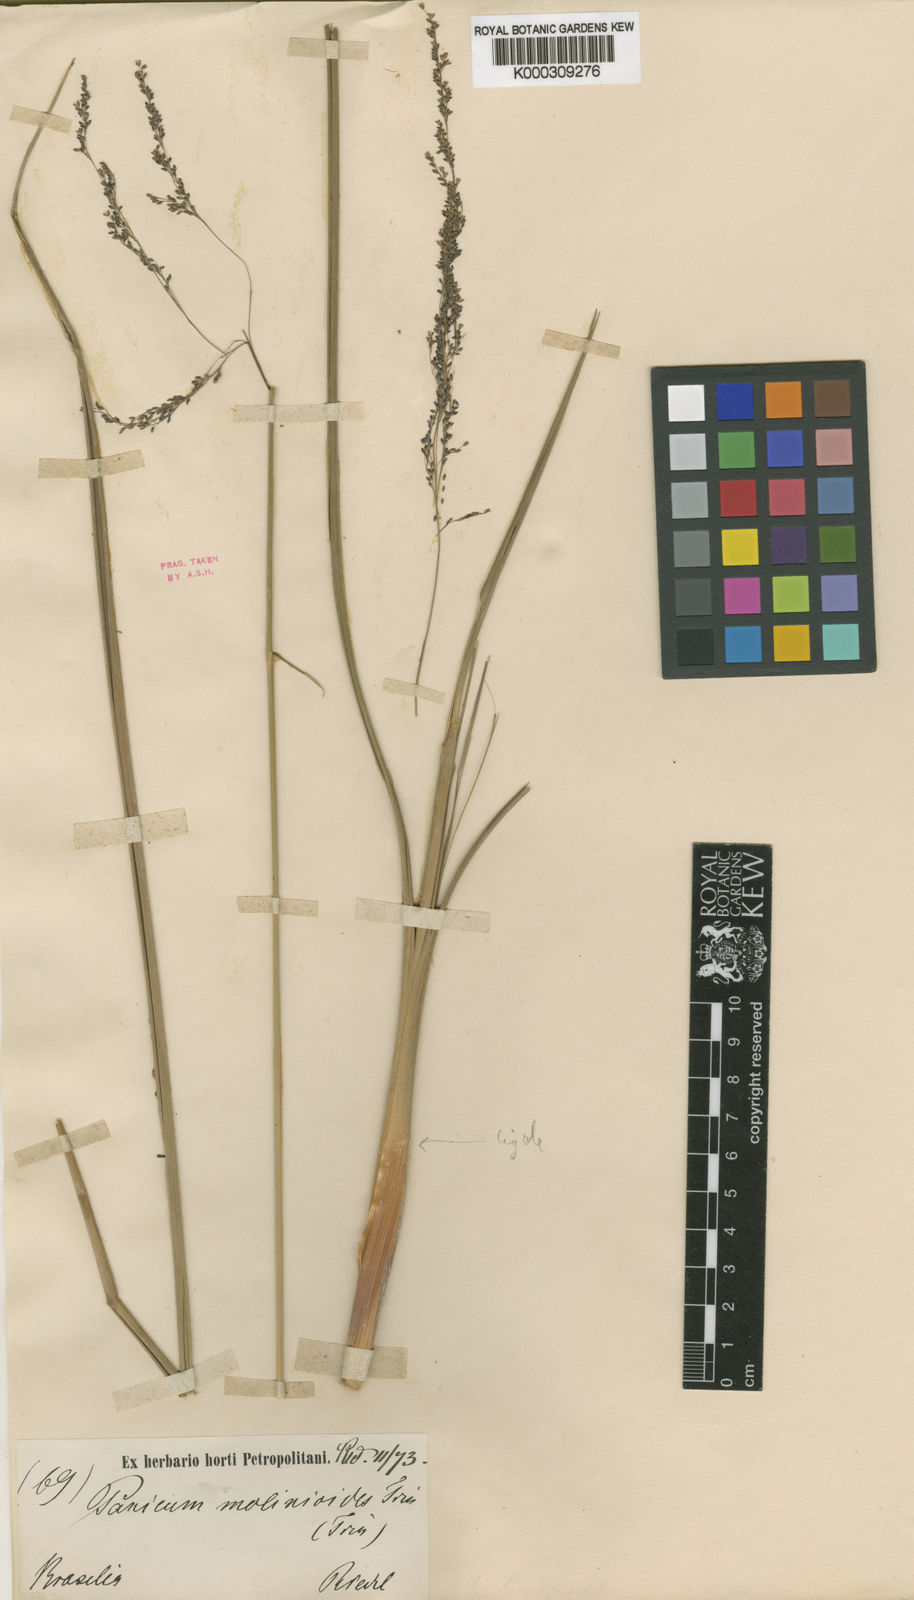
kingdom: Plantae
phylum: Tracheophyta
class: Liliopsida
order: Poales
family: Poaceae
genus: Apochloa
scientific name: Apochloa molinioides
